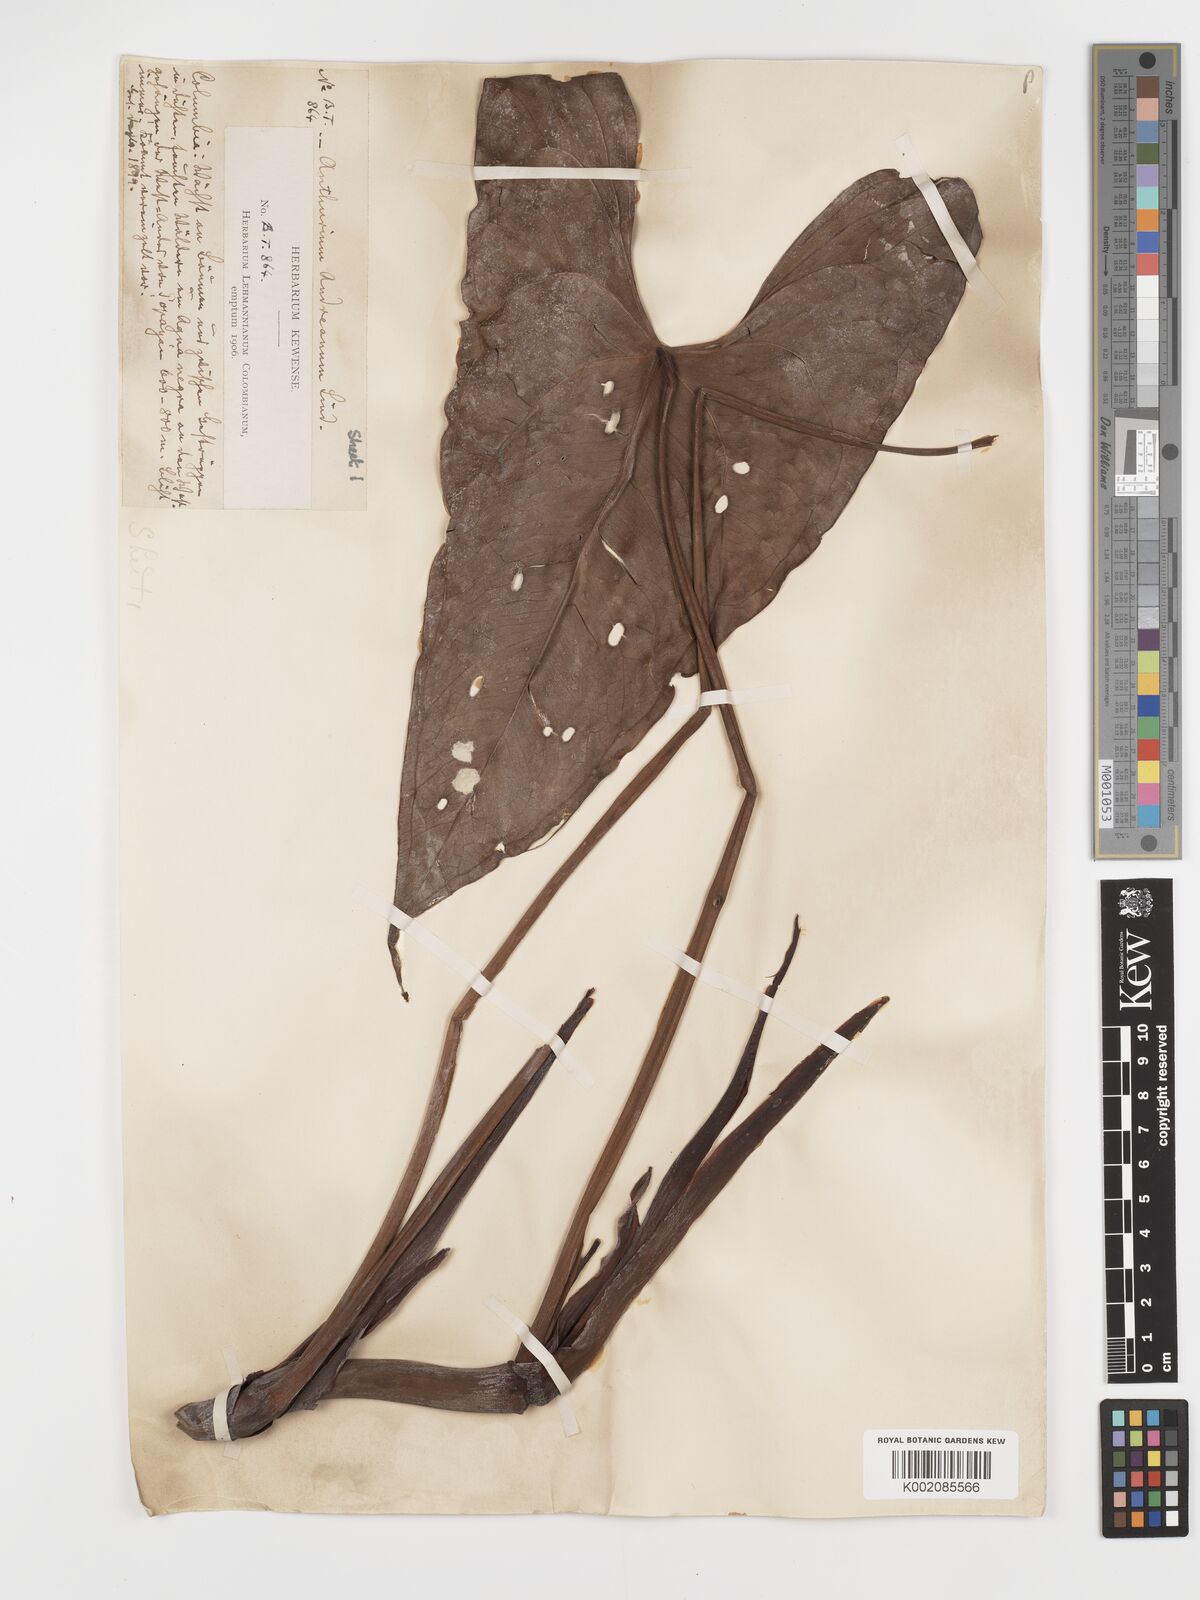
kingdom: Plantae
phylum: Tracheophyta
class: Liliopsida
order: Alismatales
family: Araceae
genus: Anthurium
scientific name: Anthurium andraeanum
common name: Flamingo-flower
